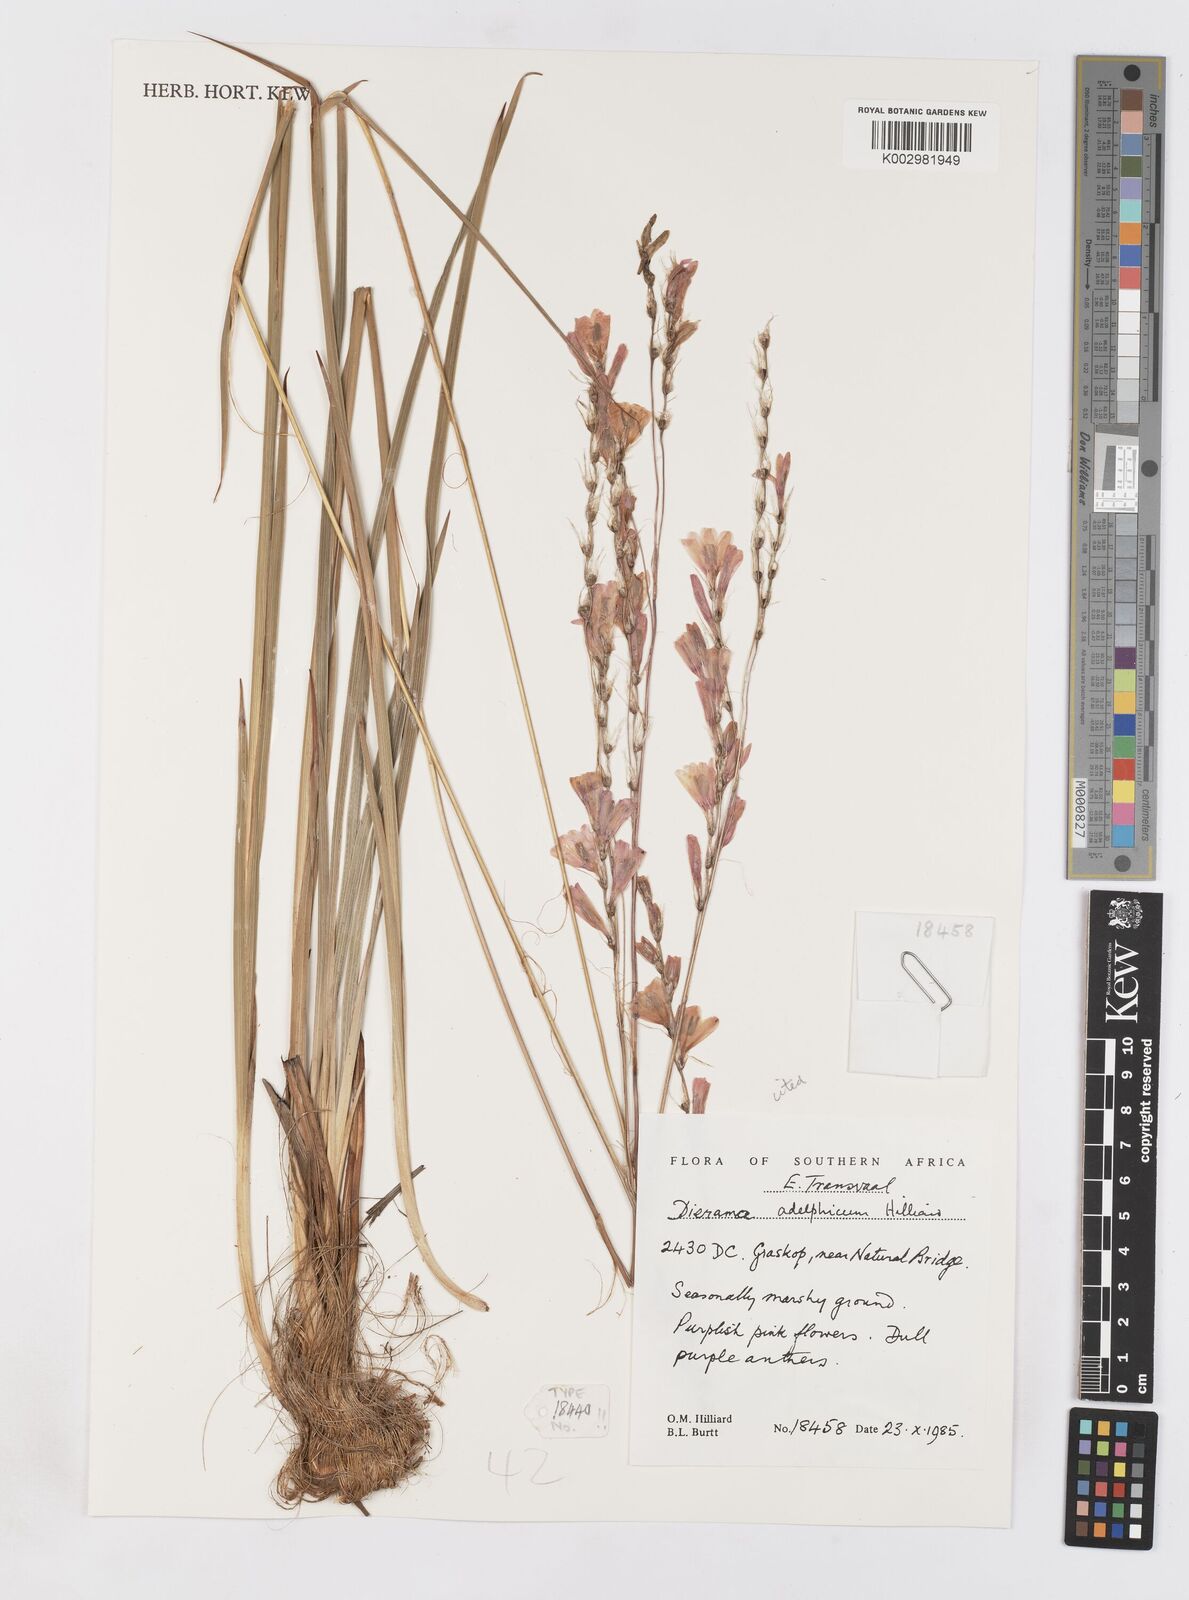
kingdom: Plantae
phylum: Tracheophyta
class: Liliopsida
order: Asparagales
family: Iridaceae
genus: Dierama
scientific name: Dierama adelphicum
